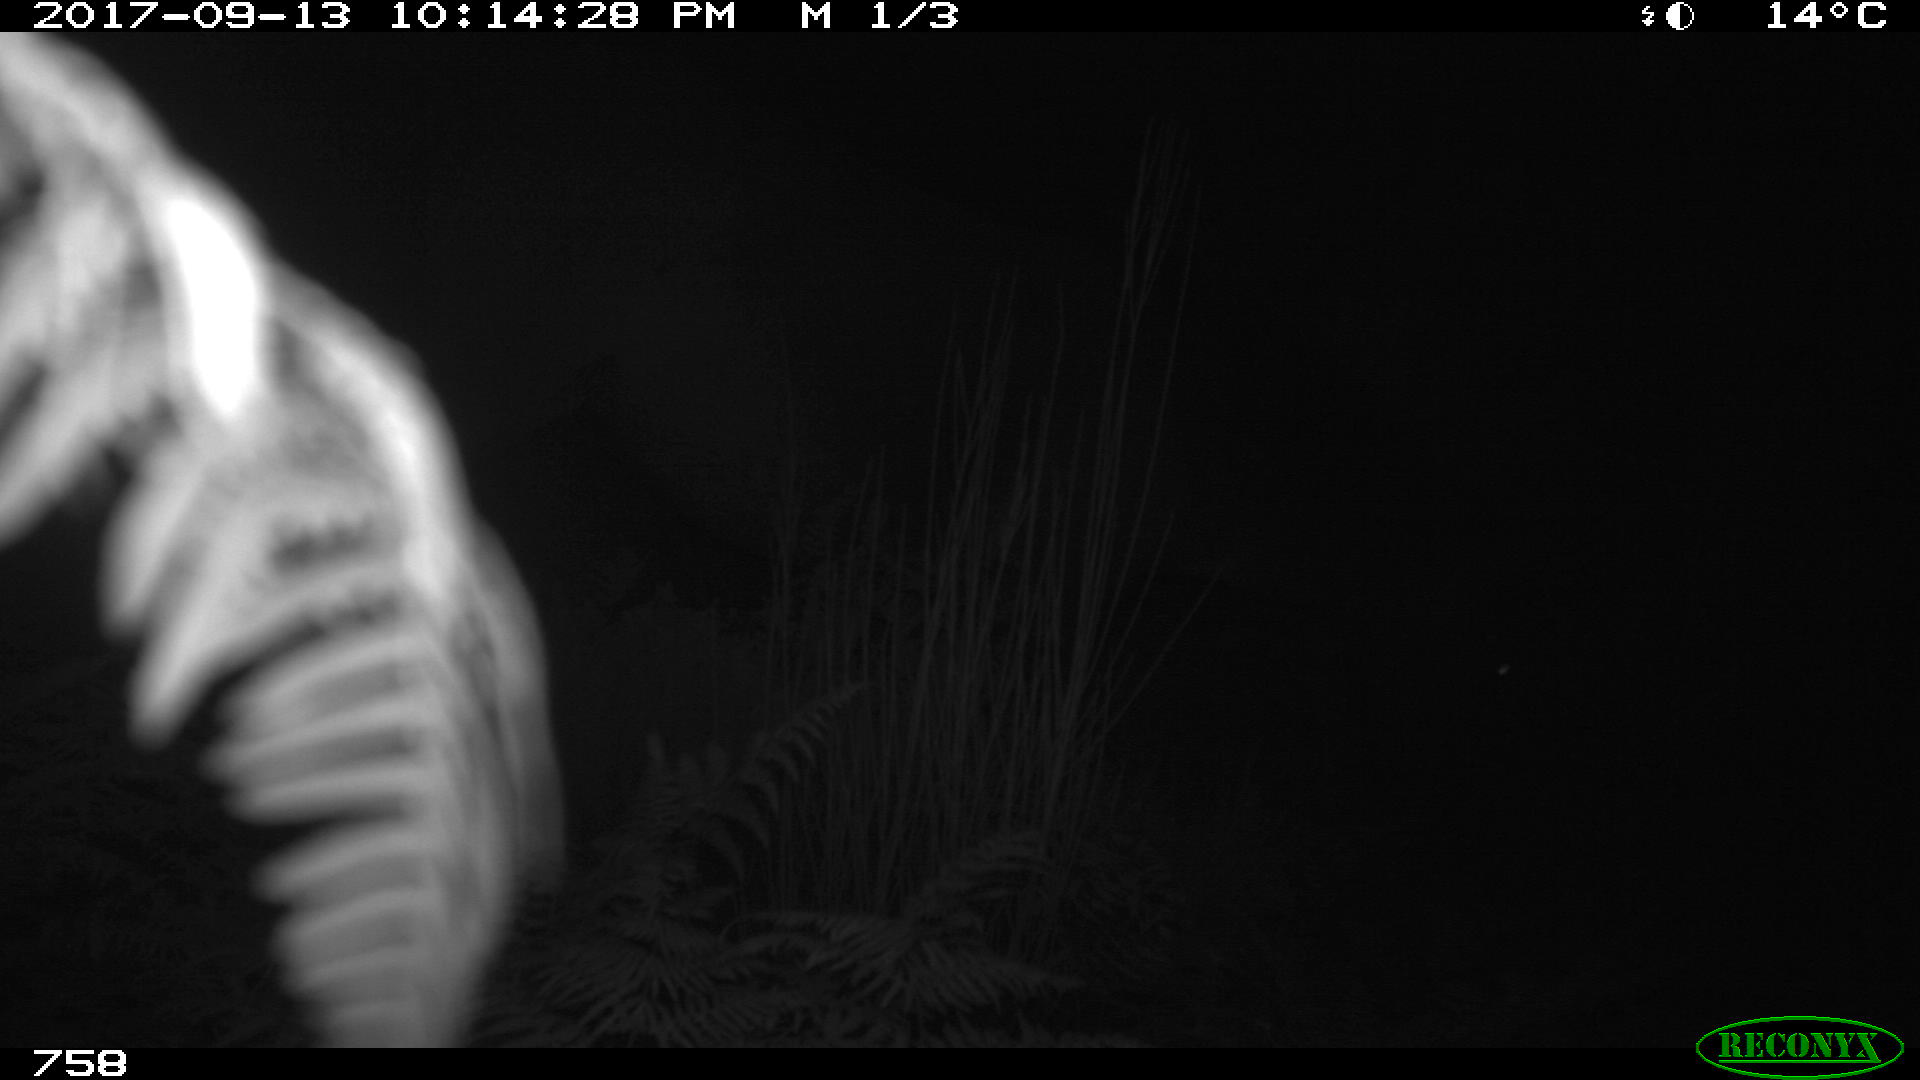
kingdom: Animalia
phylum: Chordata
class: Mammalia
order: Perissodactyla
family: Equidae
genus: Equus
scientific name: Equus caballus
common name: Horse
